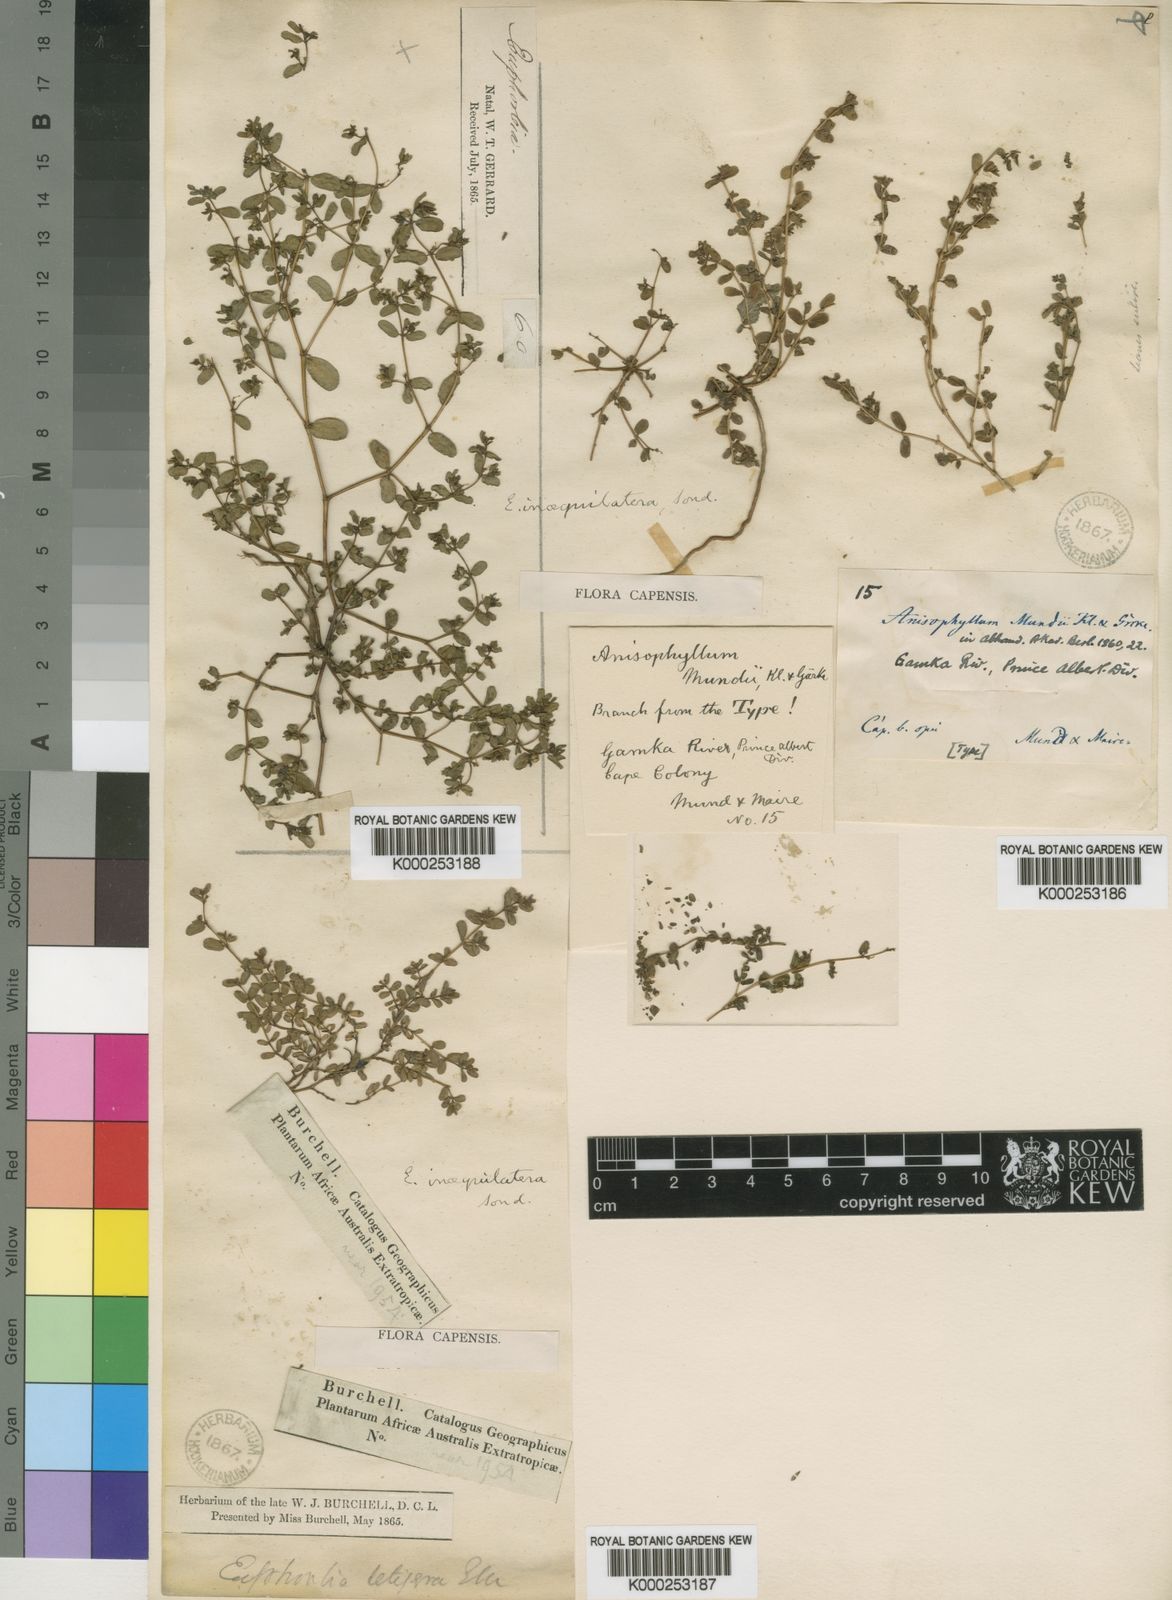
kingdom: Plantae
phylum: Tracheophyta
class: Magnoliopsida
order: Malpighiales
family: Euphorbiaceae
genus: Euphorbia
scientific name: Euphorbia inaequilatera
